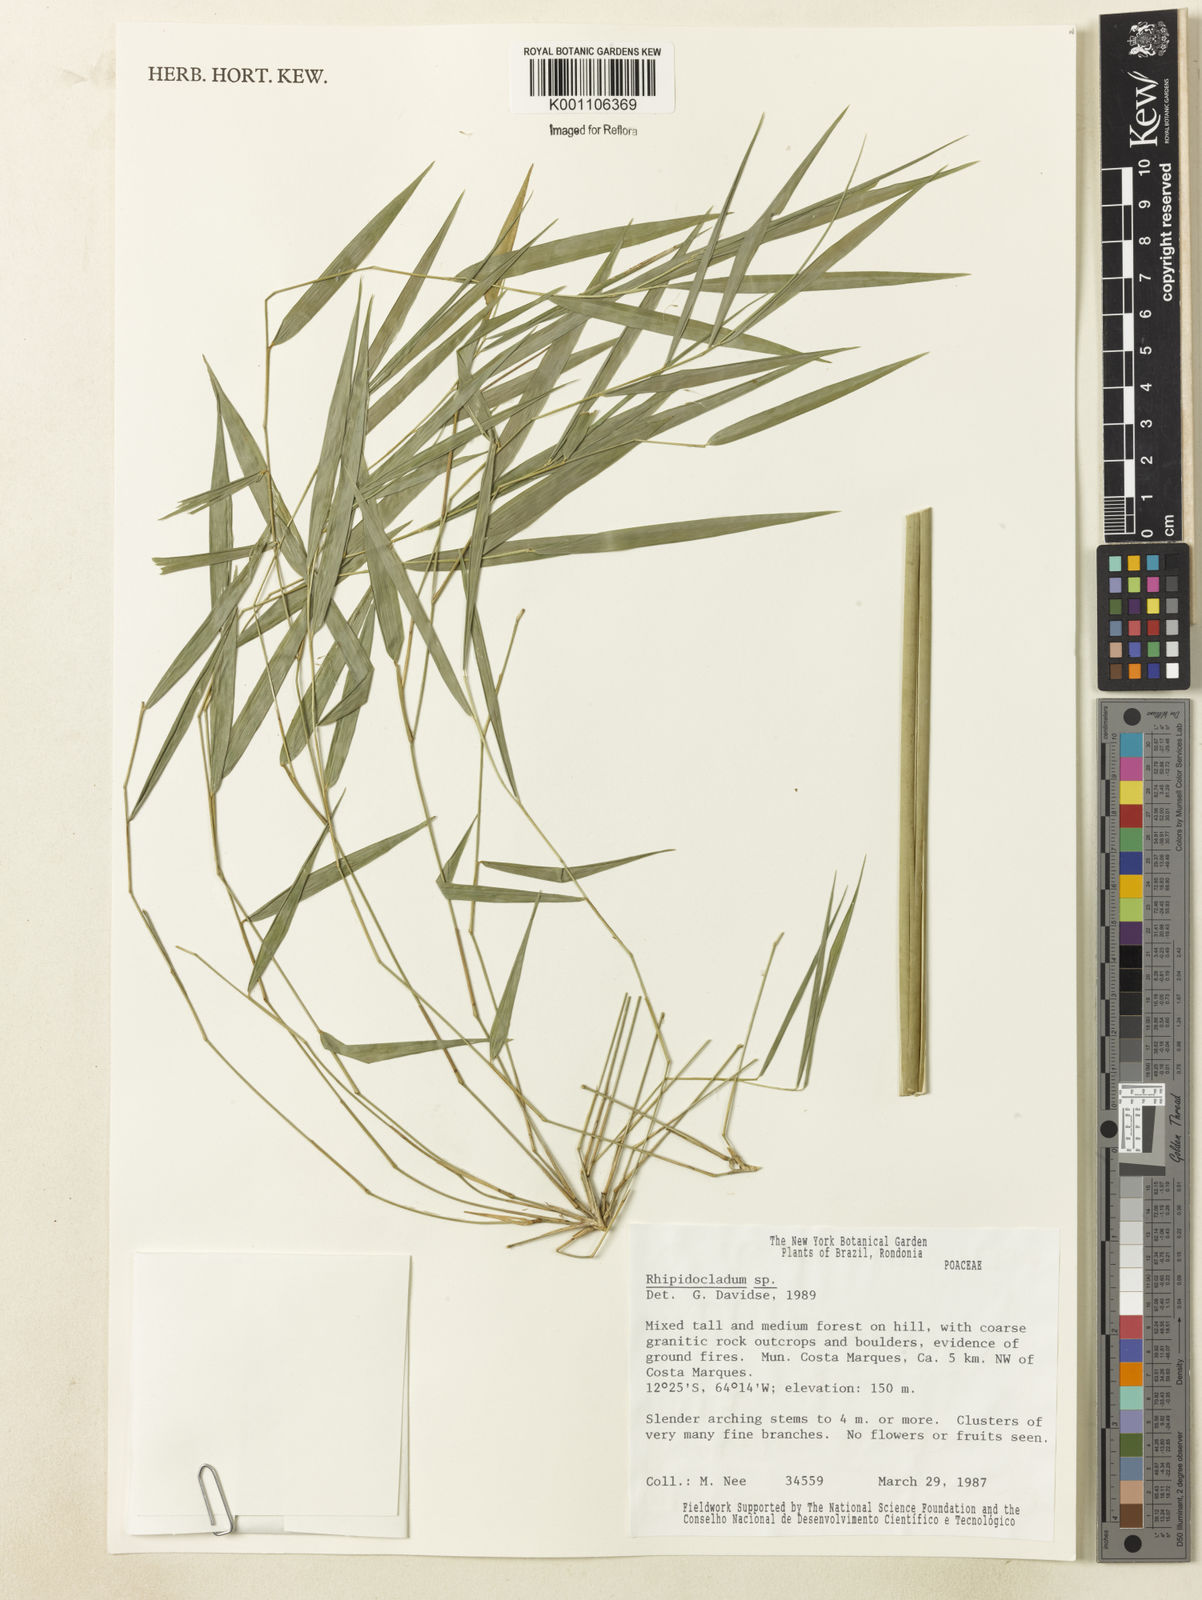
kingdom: Plantae
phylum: Tracheophyta
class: Liliopsida
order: Poales
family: Poaceae
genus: Rhipidocladum
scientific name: Rhipidocladum
